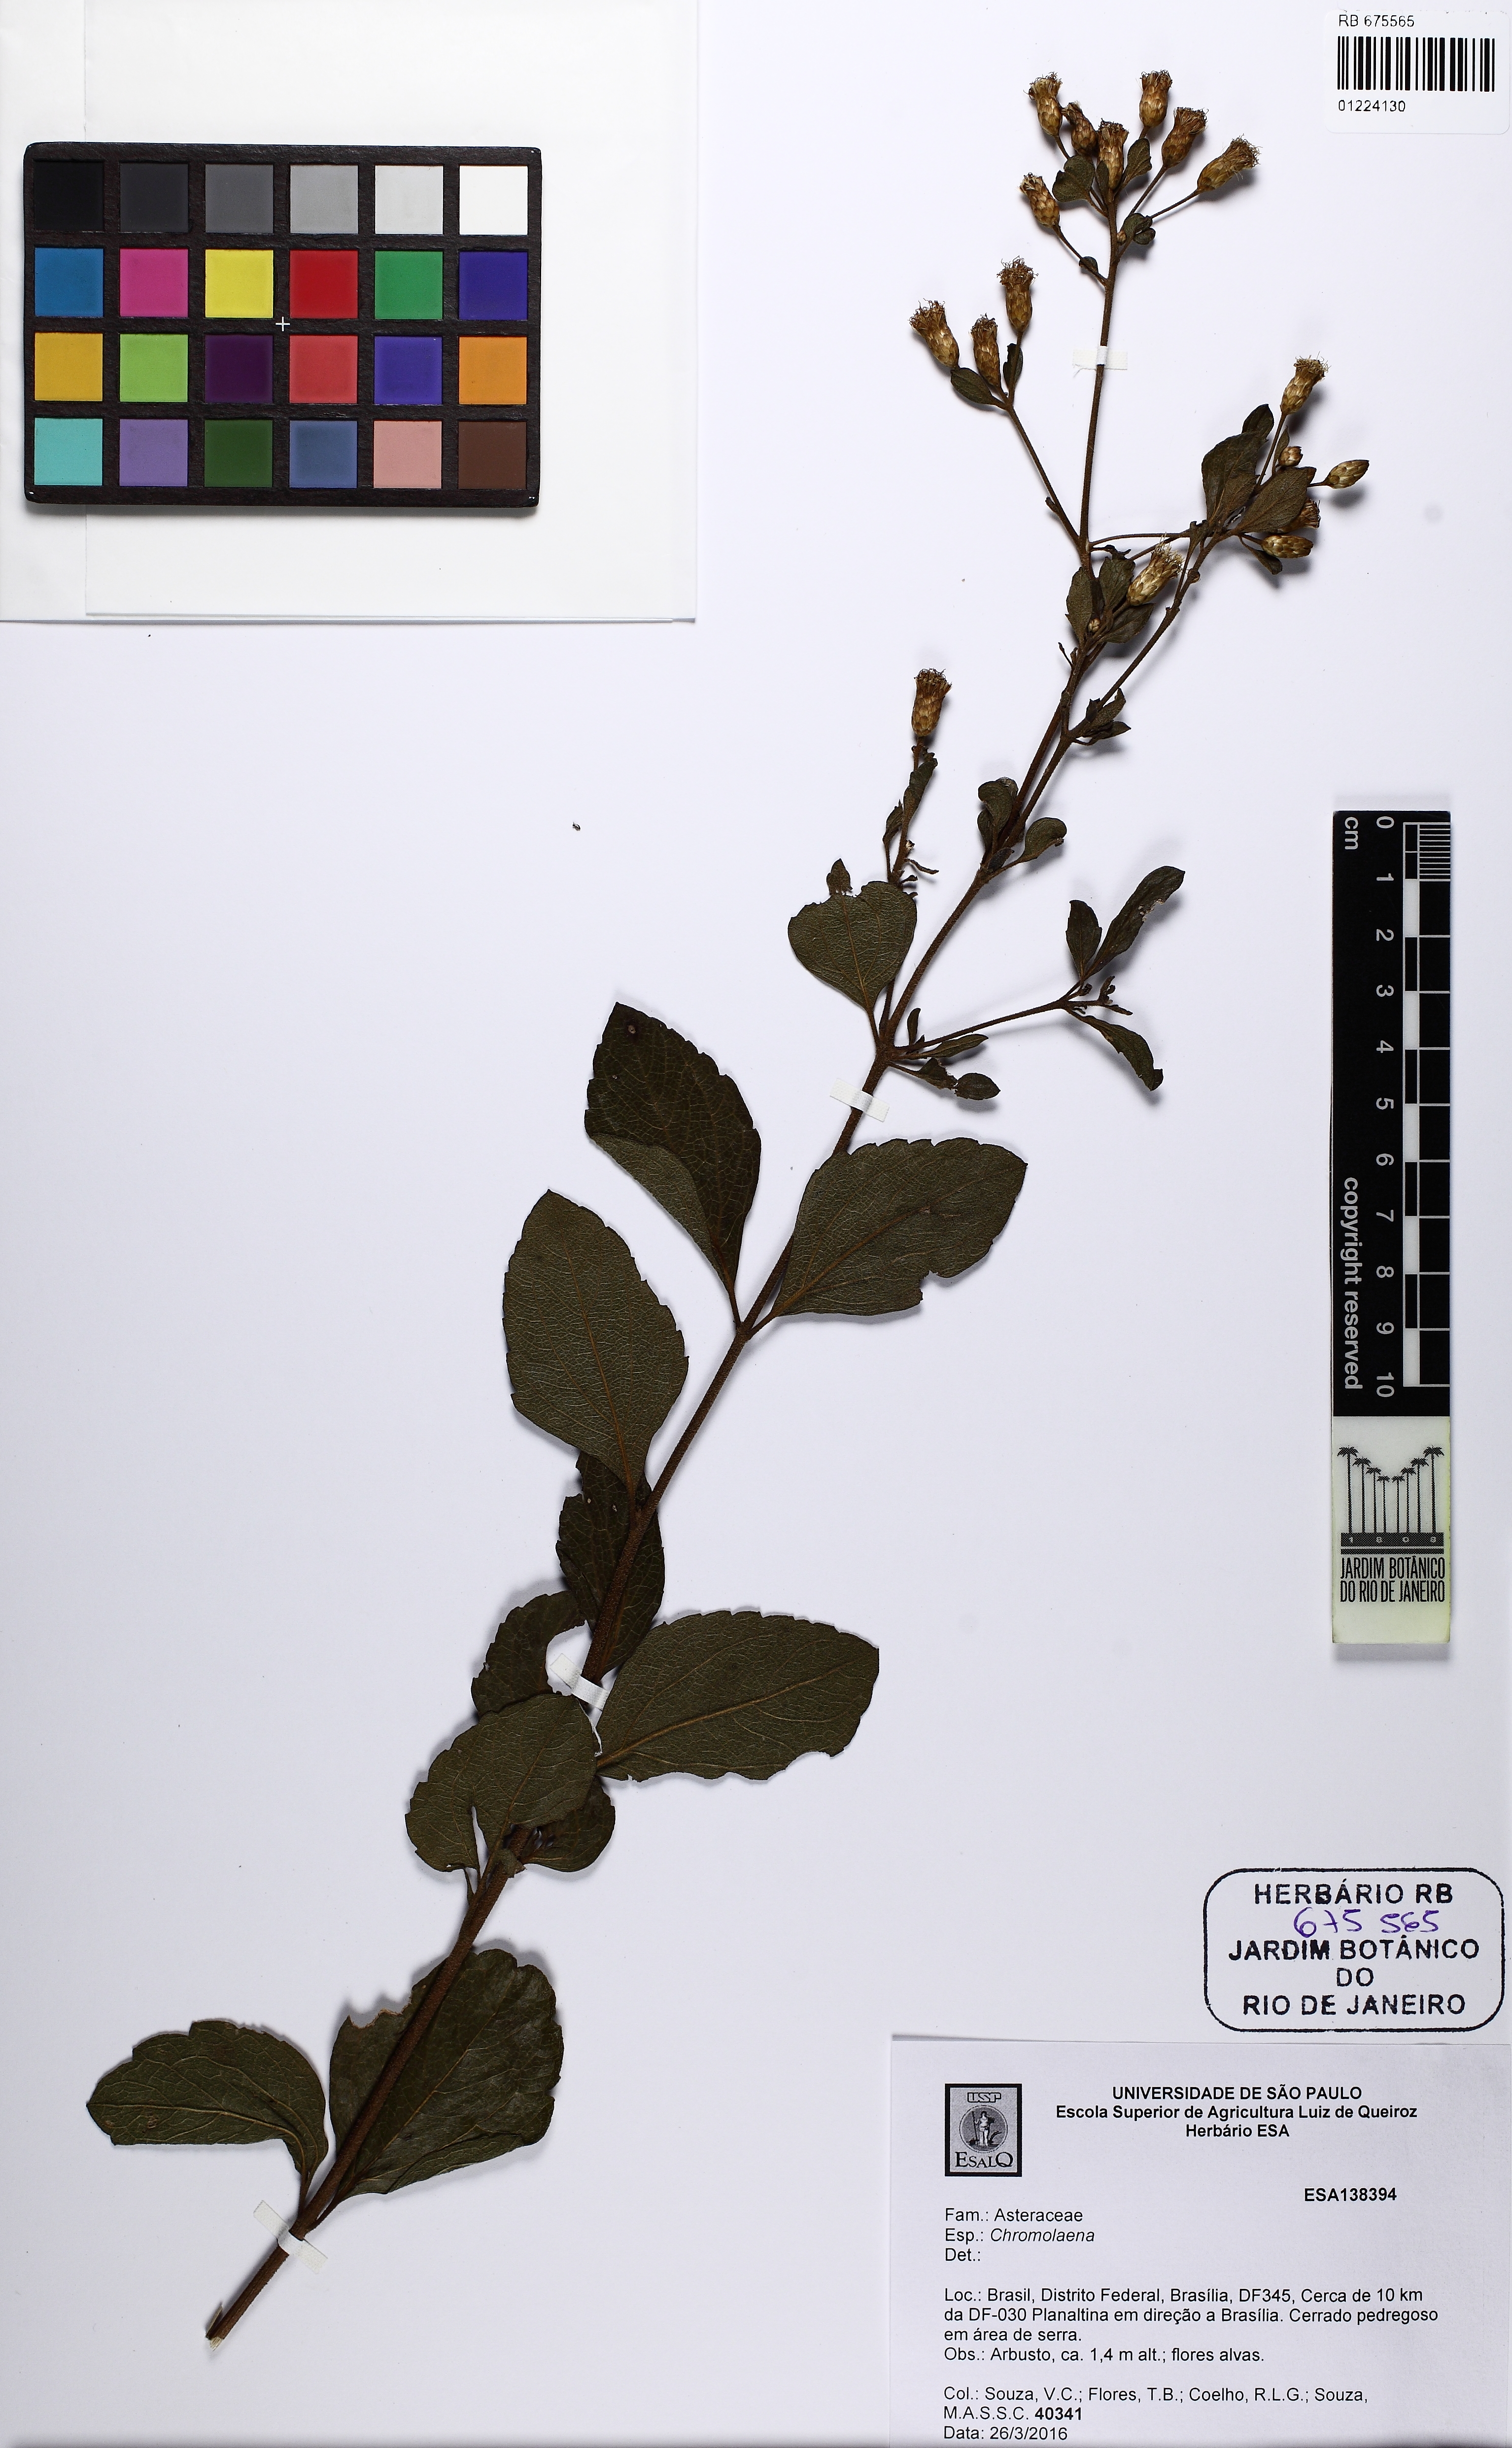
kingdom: Plantae
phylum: Tracheophyta
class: Magnoliopsida
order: Asterales
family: Asteraceae
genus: Chromolaena
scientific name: Chromolaena
